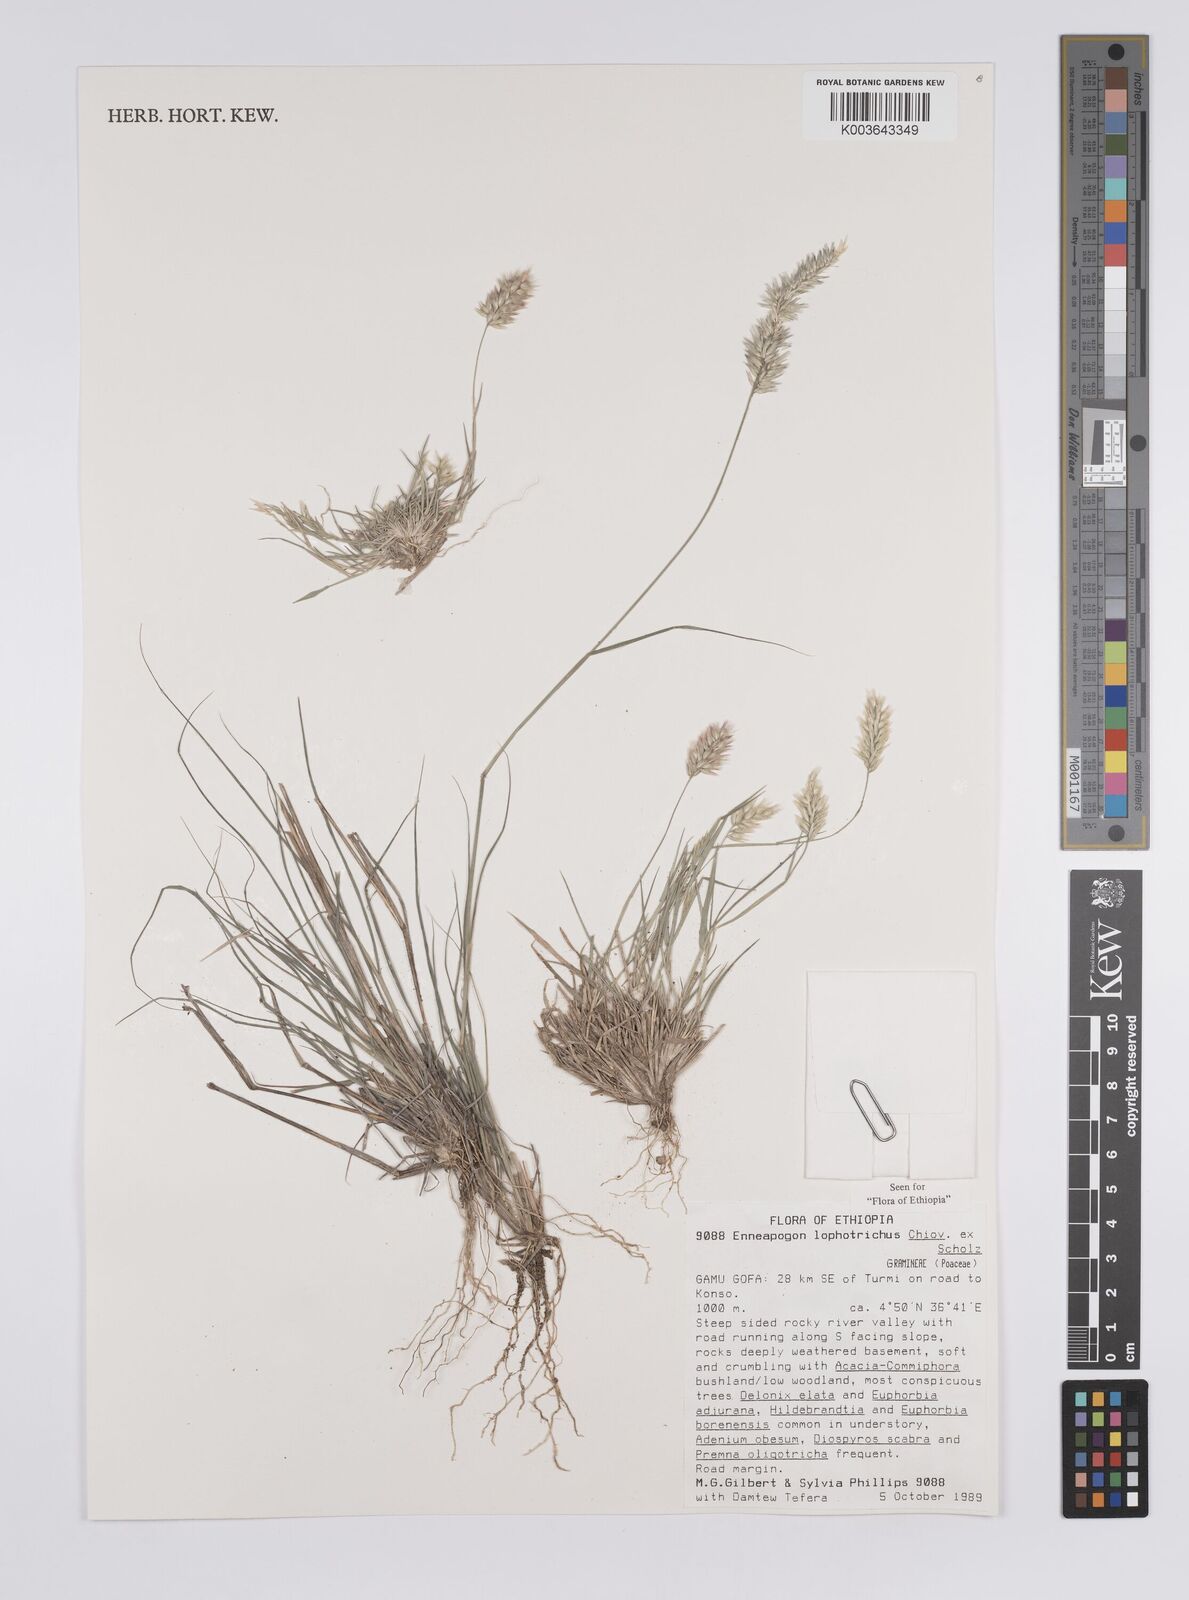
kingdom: Plantae
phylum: Tracheophyta
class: Liliopsida
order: Poales
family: Poaceae
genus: Enneapogon
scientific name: Enneapogon lophotrichus
